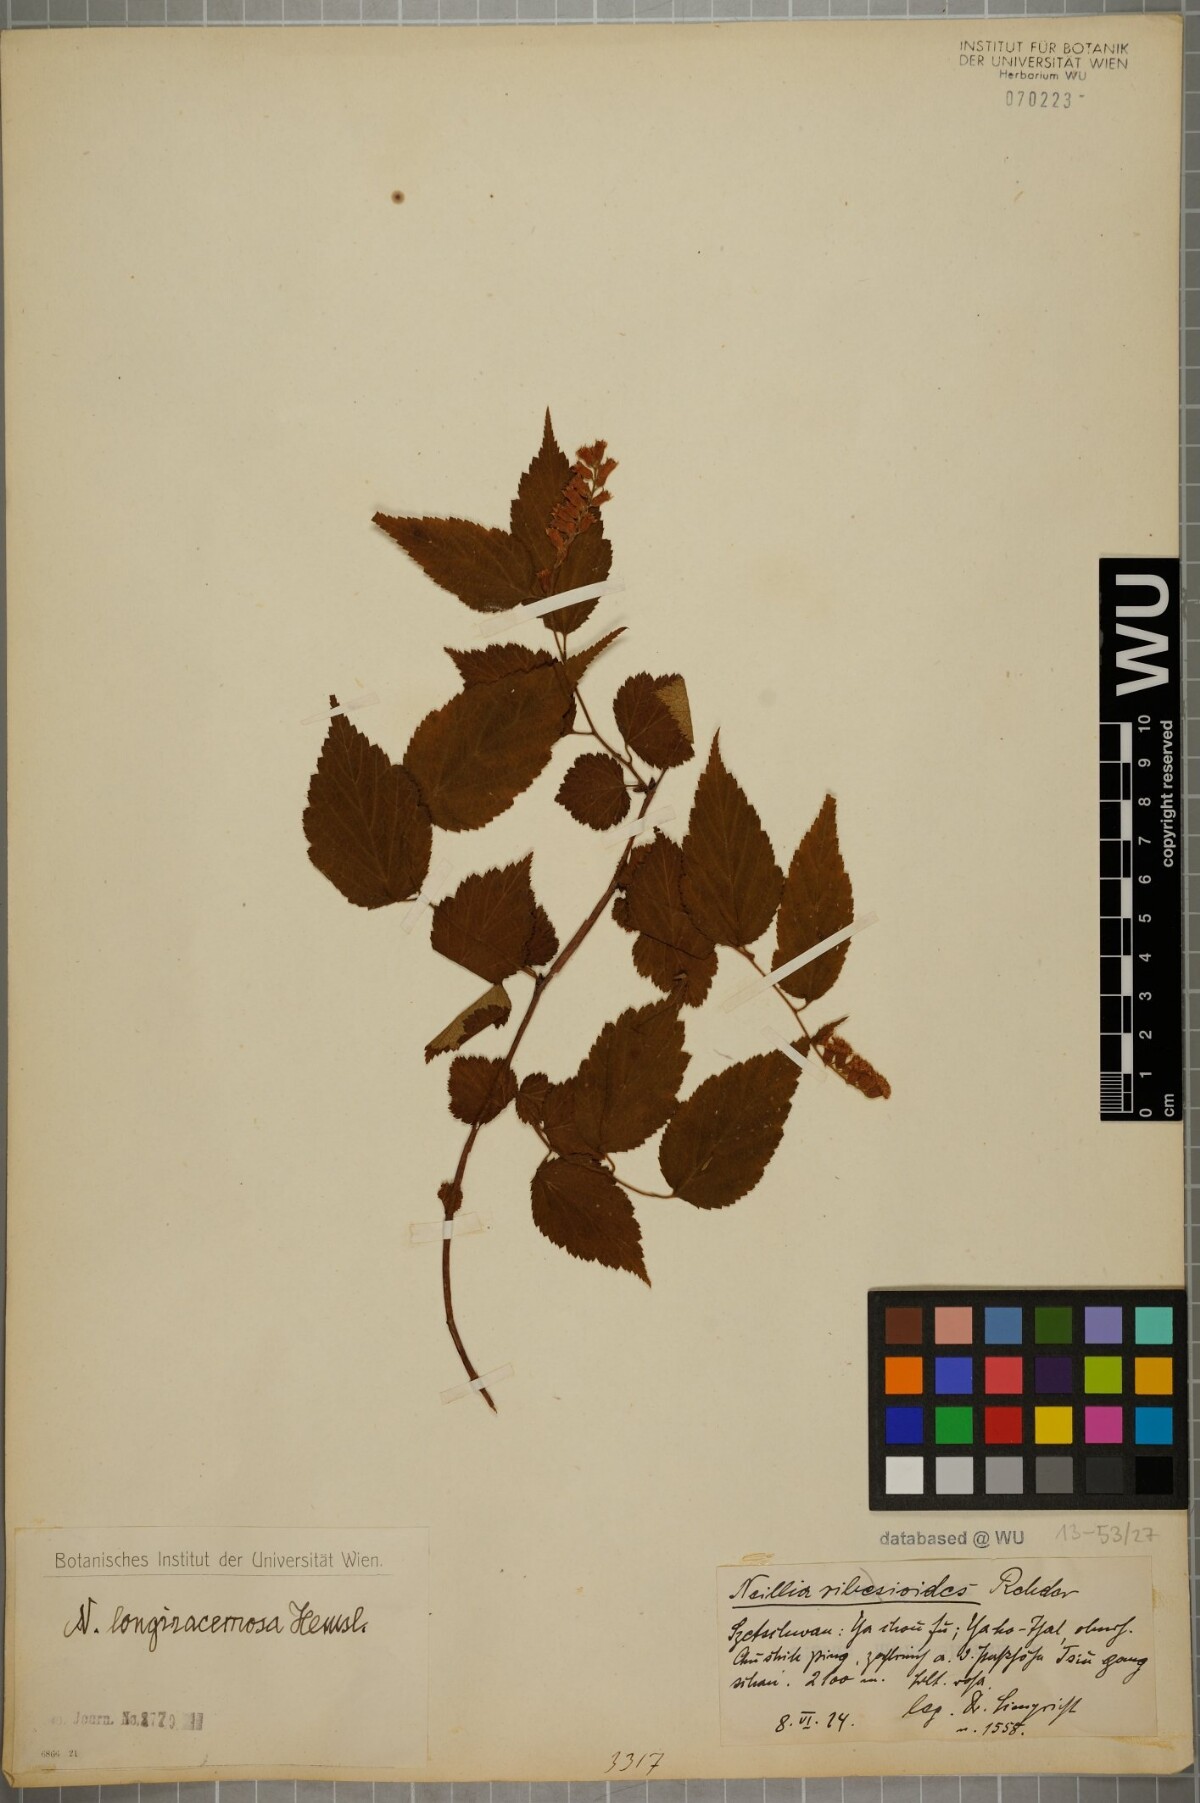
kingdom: Plantae
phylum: Tracheophyta
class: Magnoliopsida
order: Rosales
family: Rosaceae
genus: Neillia
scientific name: Neillia thibetica
